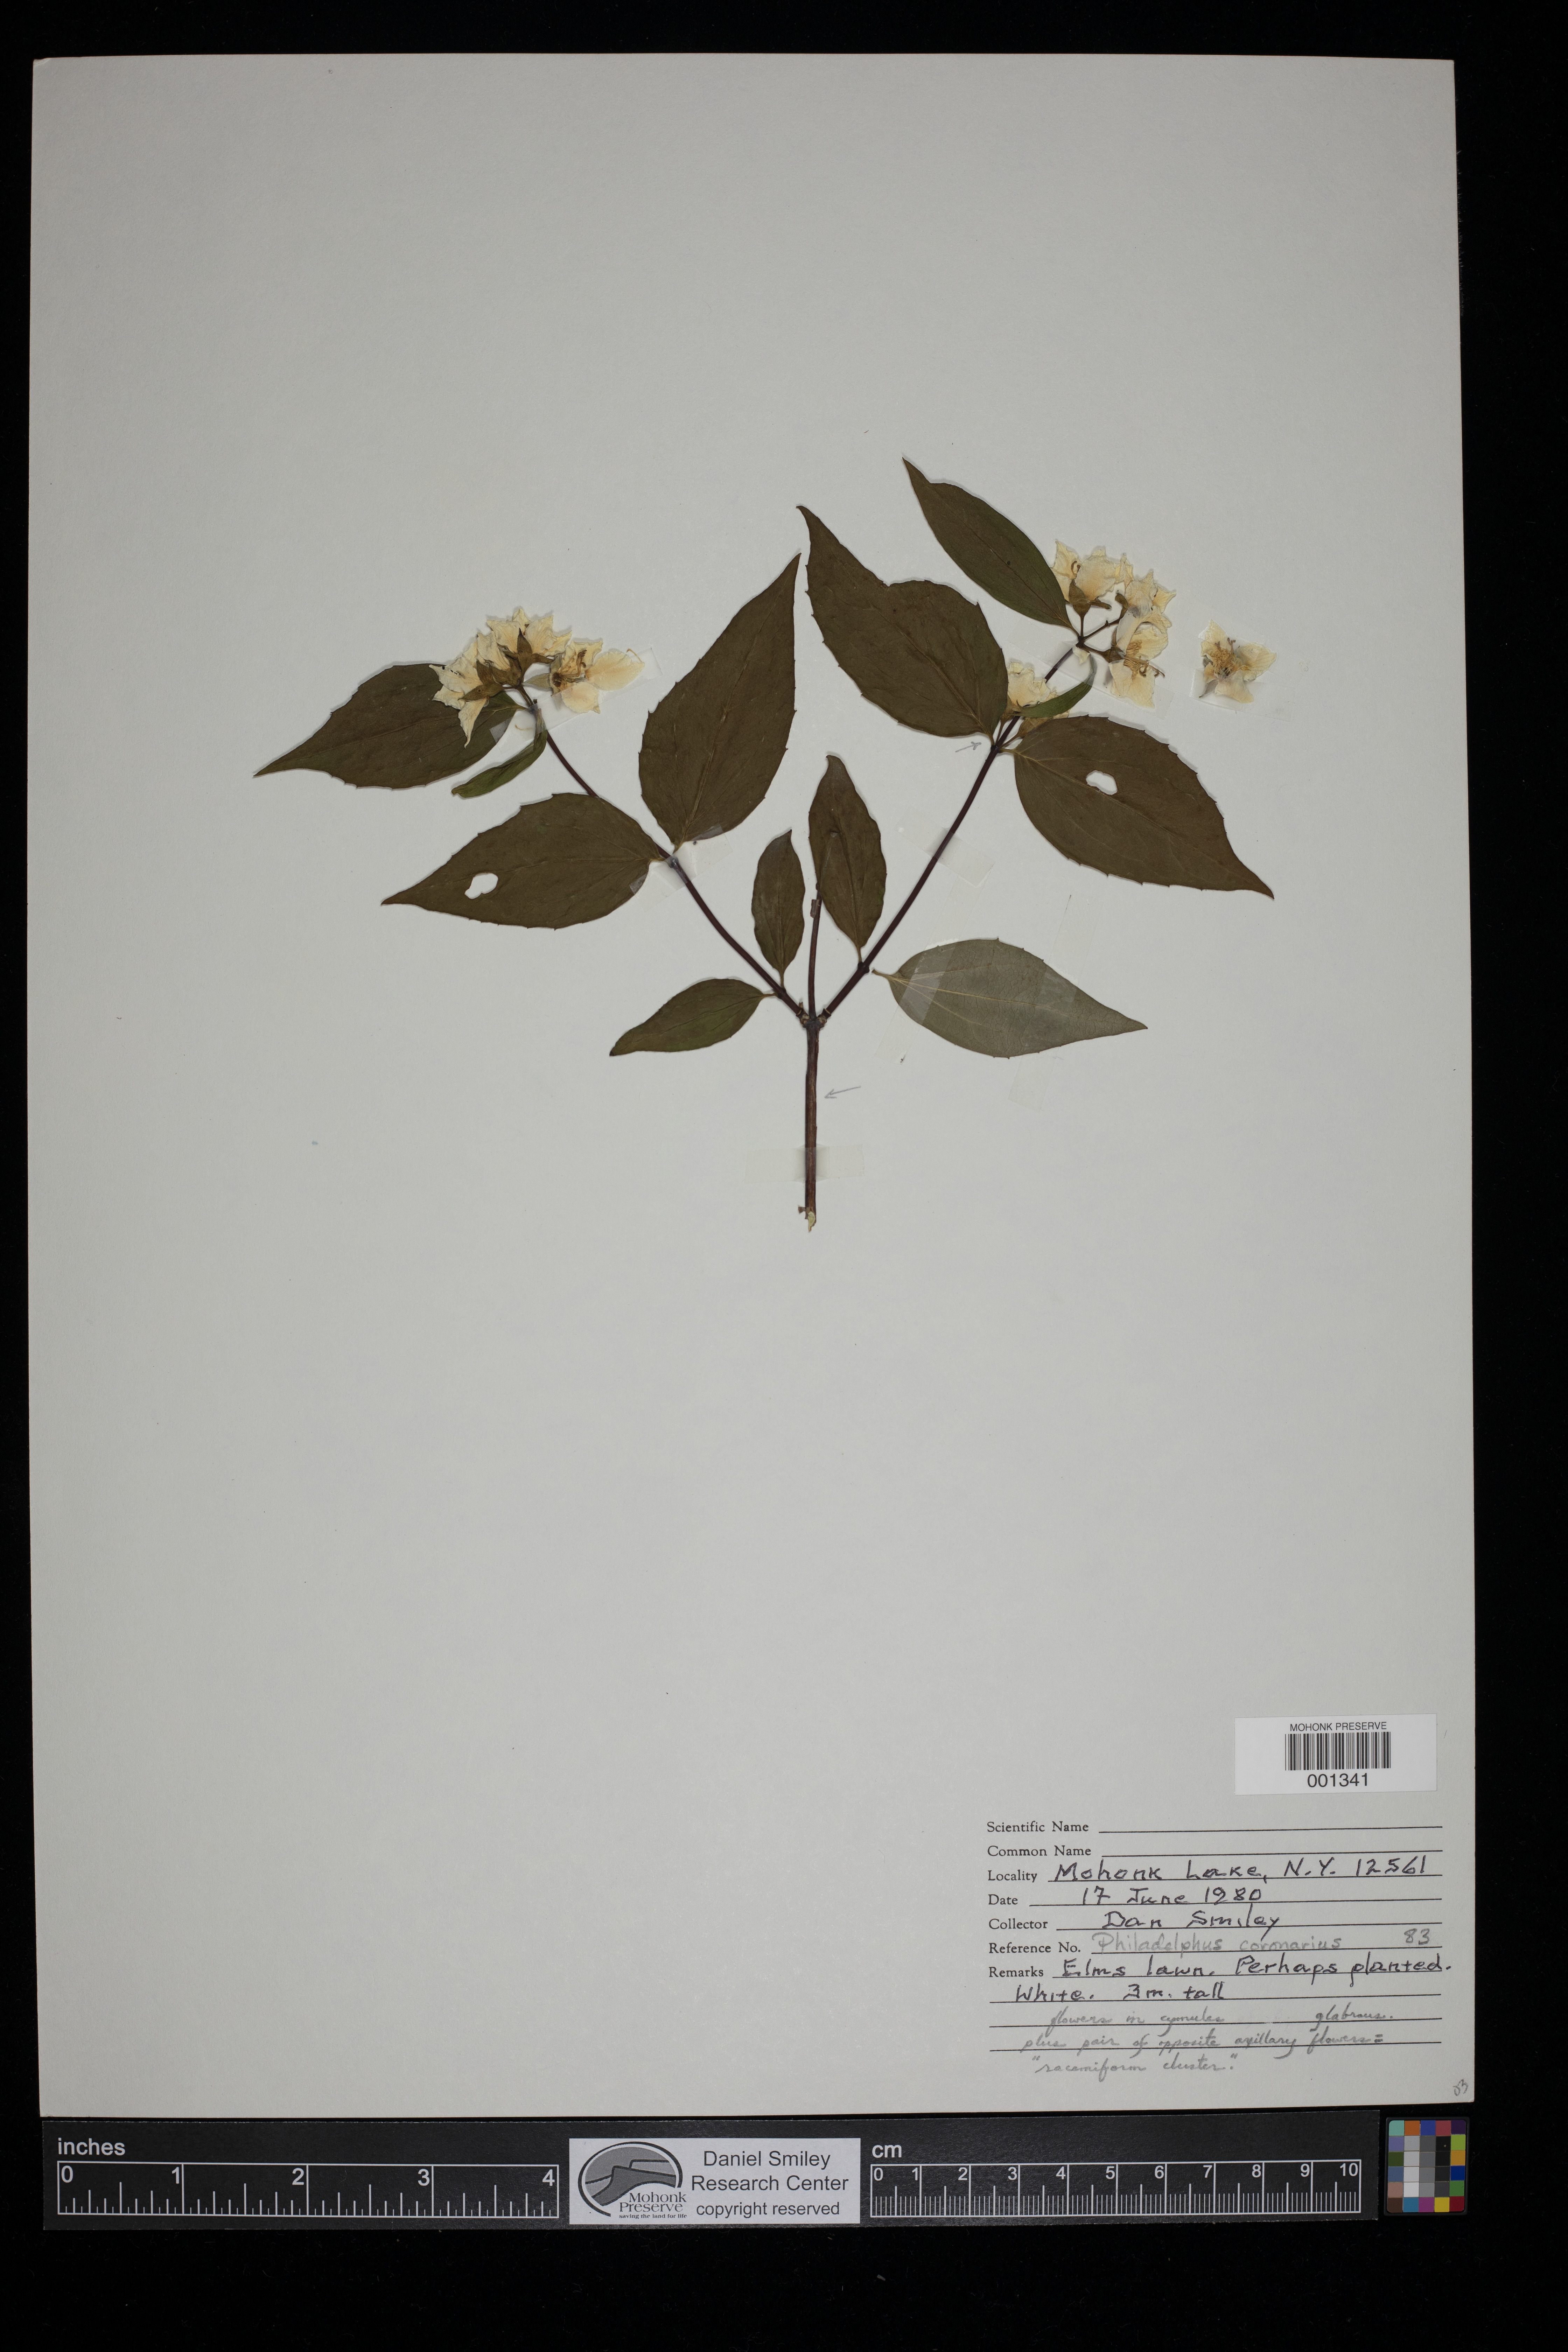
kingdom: Plantae
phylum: Tracheophyta
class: Magnoliopsida
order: Cornales
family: Hydrangeaceae
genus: Philadelphus
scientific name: Philadelphus coronarius
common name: Mock orange
